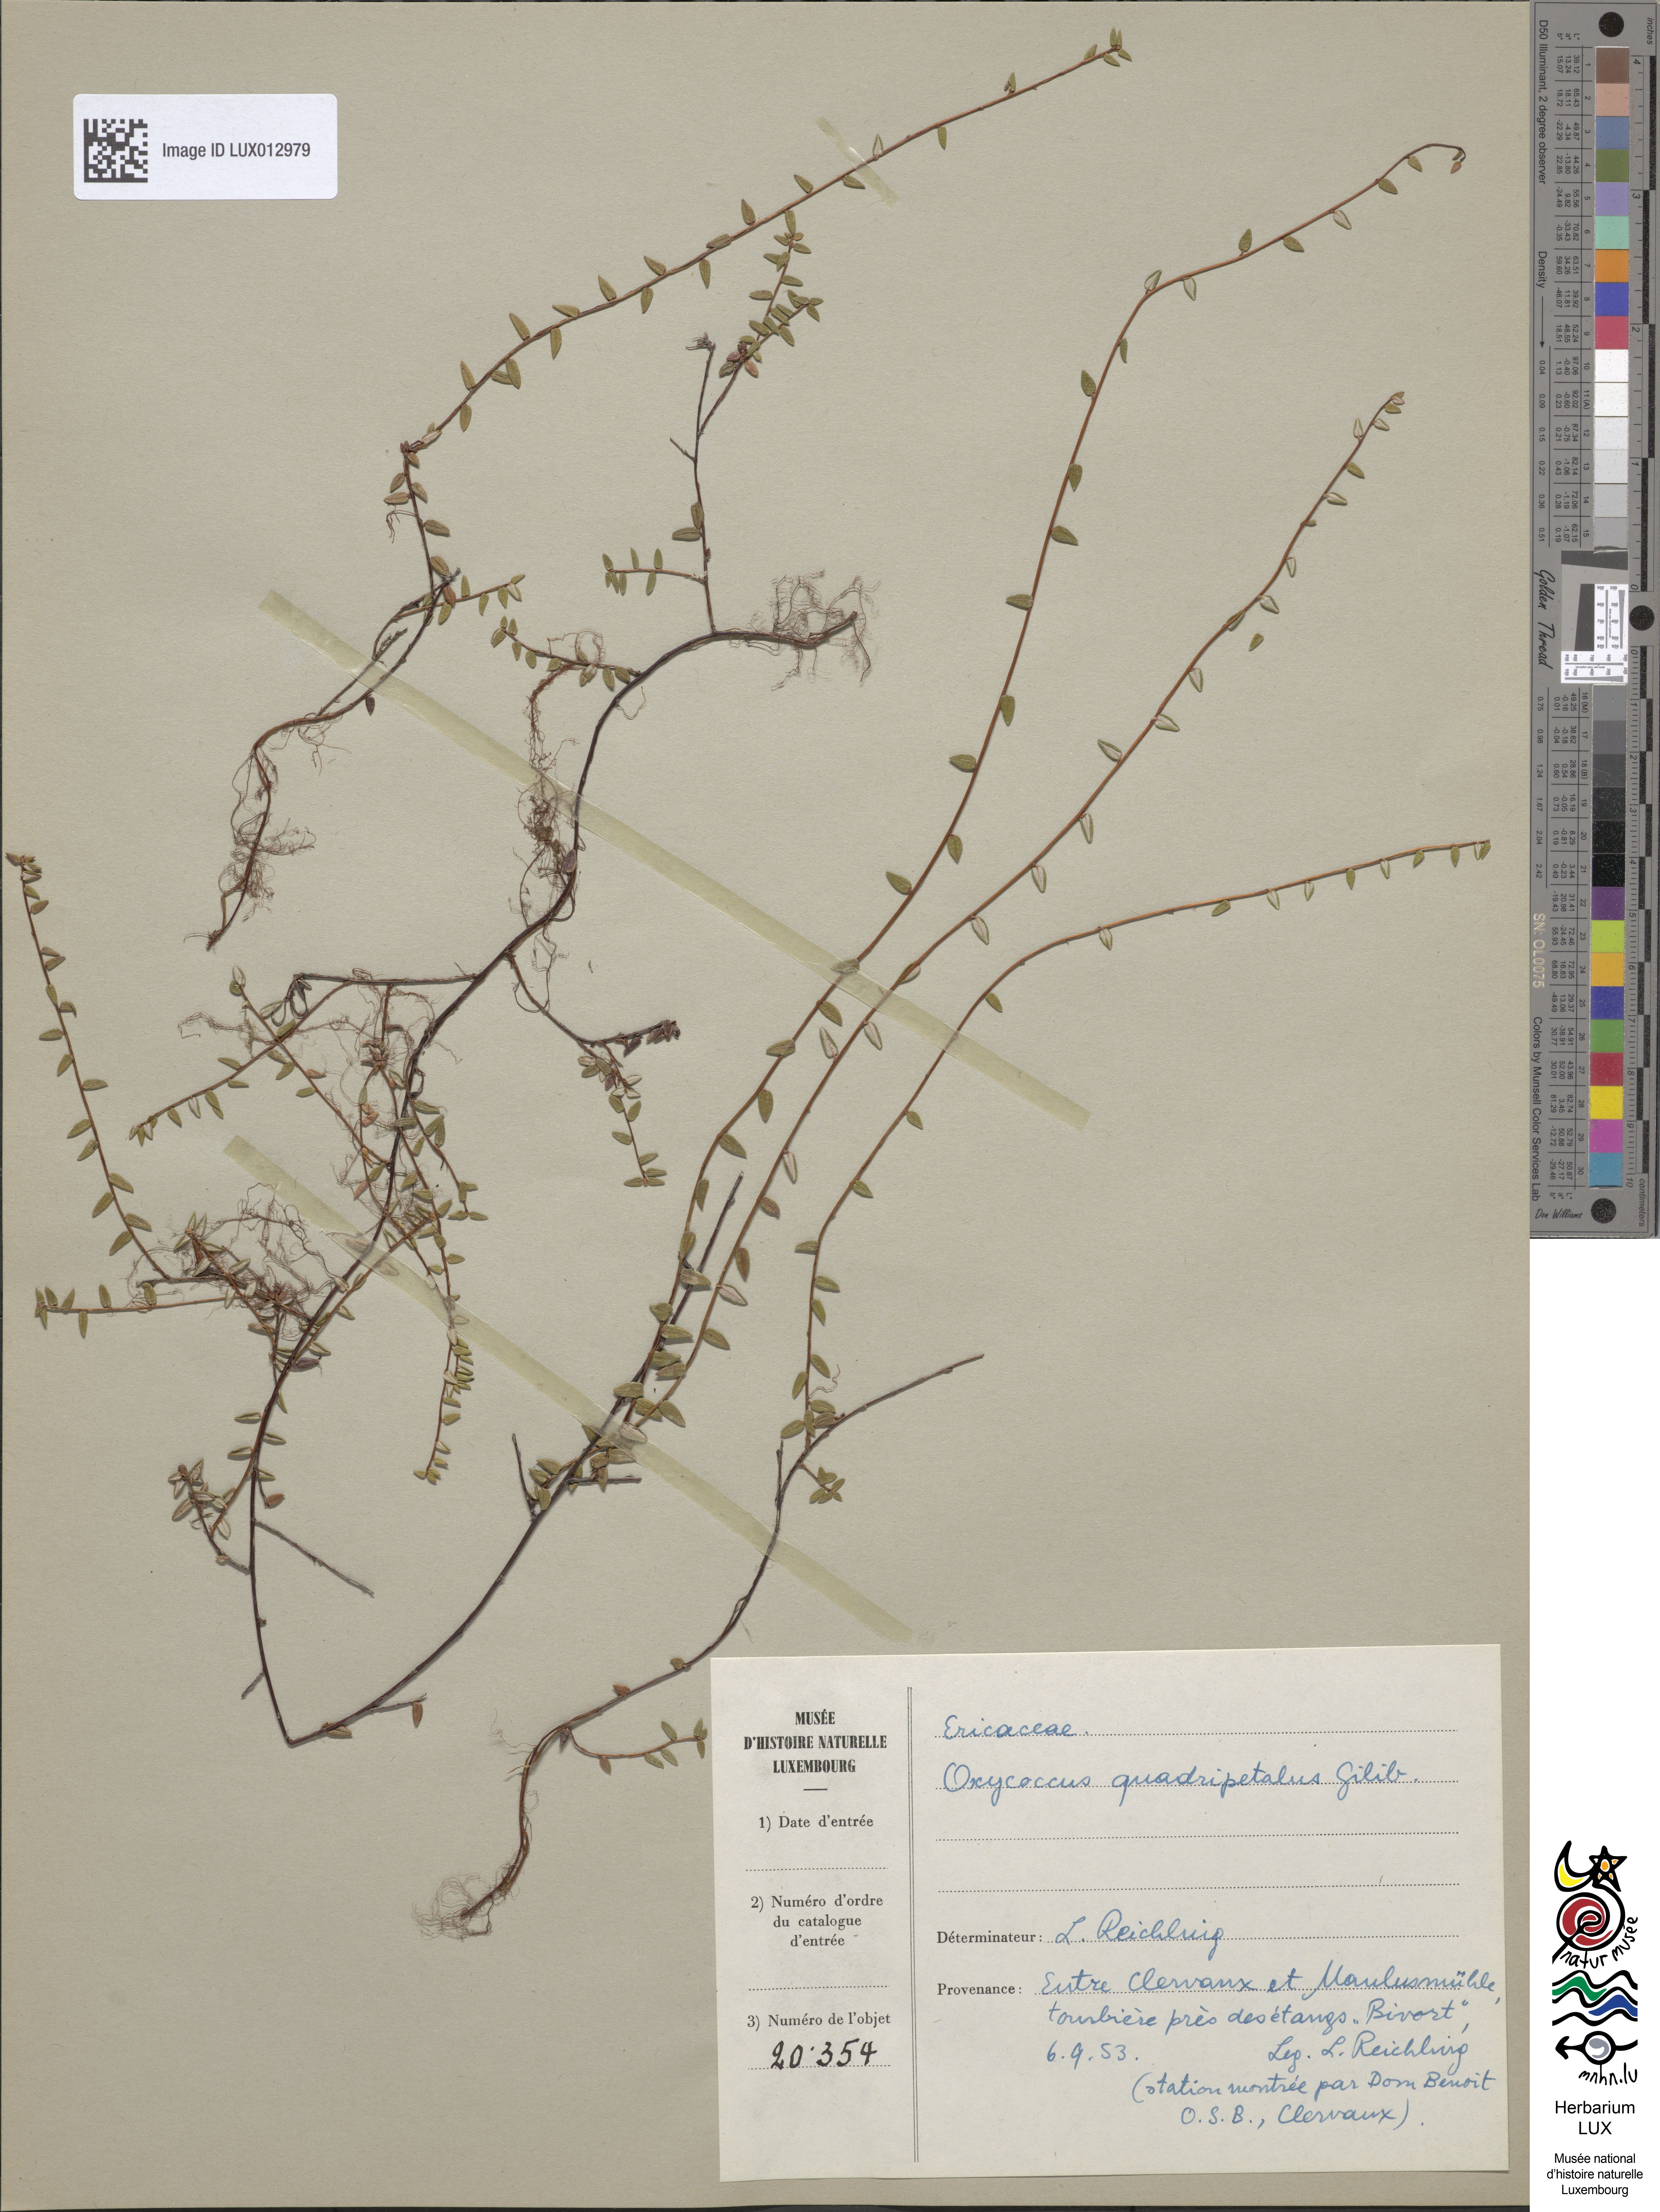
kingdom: Plantae
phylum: Tracheophyta
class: Magnoliopsida
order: Ericales
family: Ericaceae
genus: Vaccinium
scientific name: Vaccinium oxycoccos
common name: Cranberry
